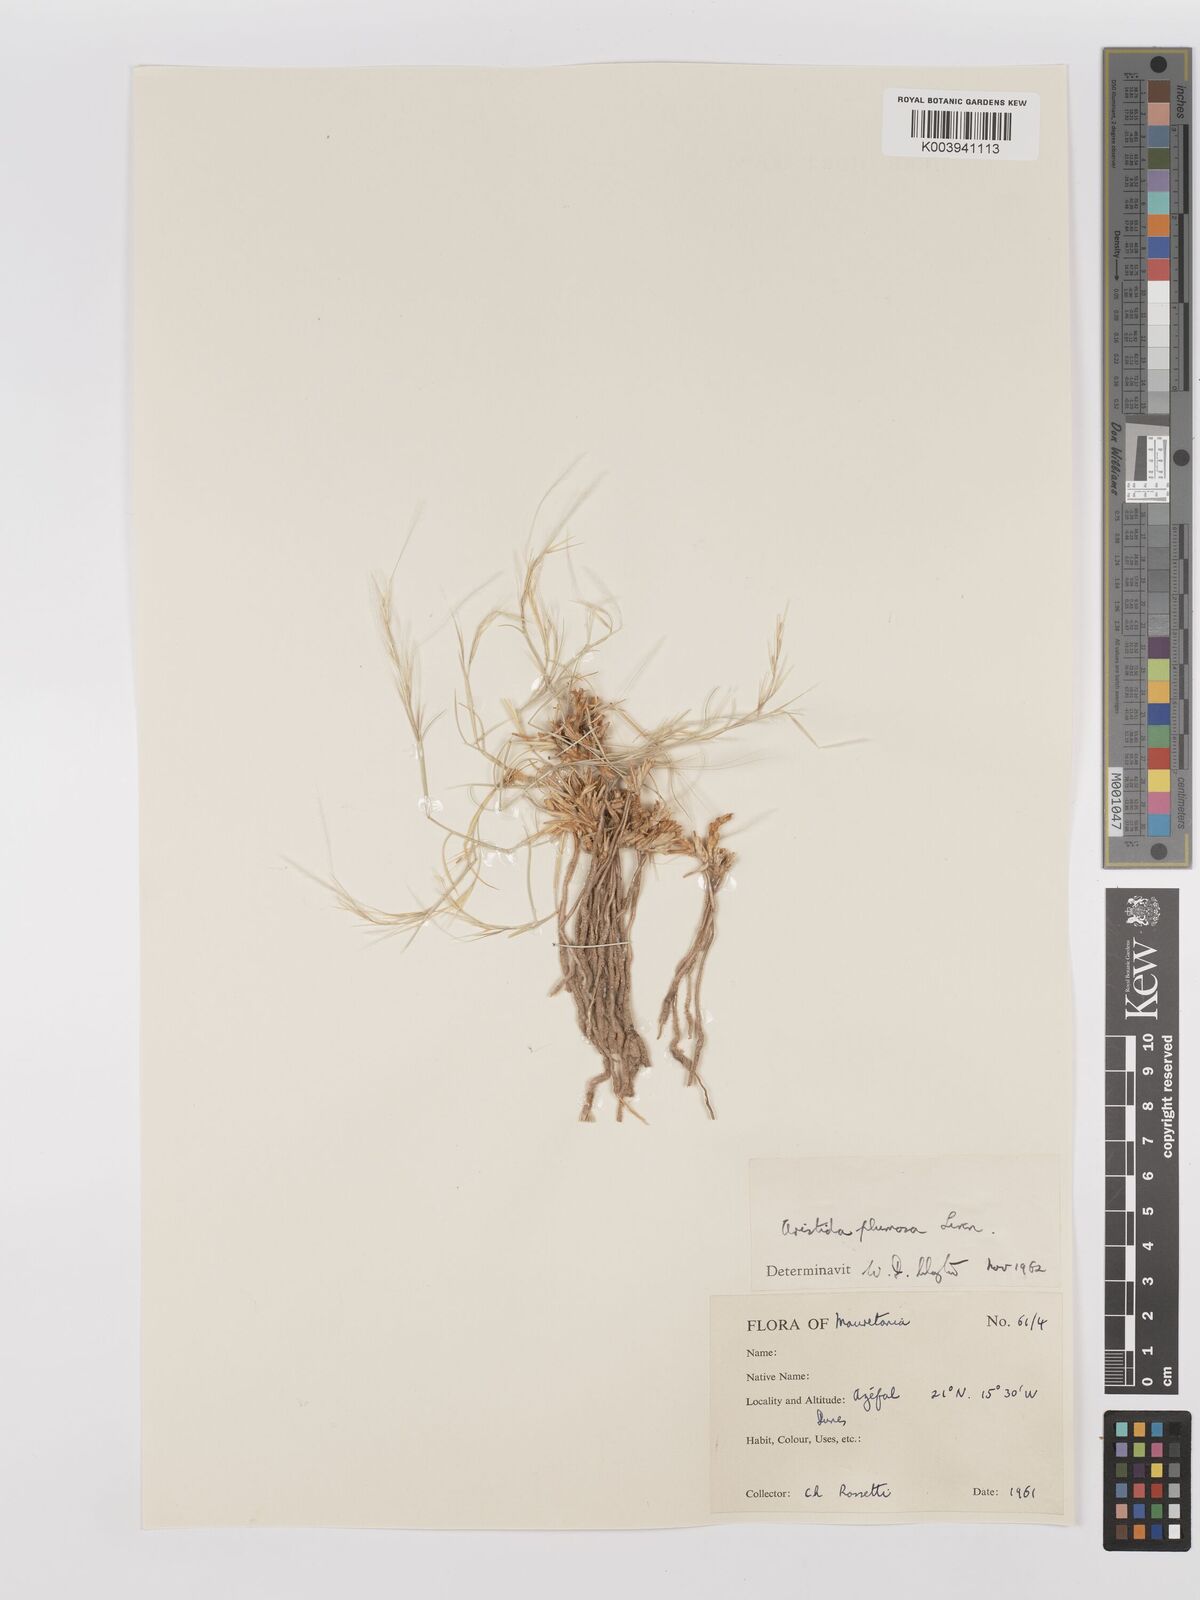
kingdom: Plantae
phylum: Tracheophyta
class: Liliopsida
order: Poales
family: Poaceae
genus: Stipagrostis
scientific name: Stipagrostis plumosa
